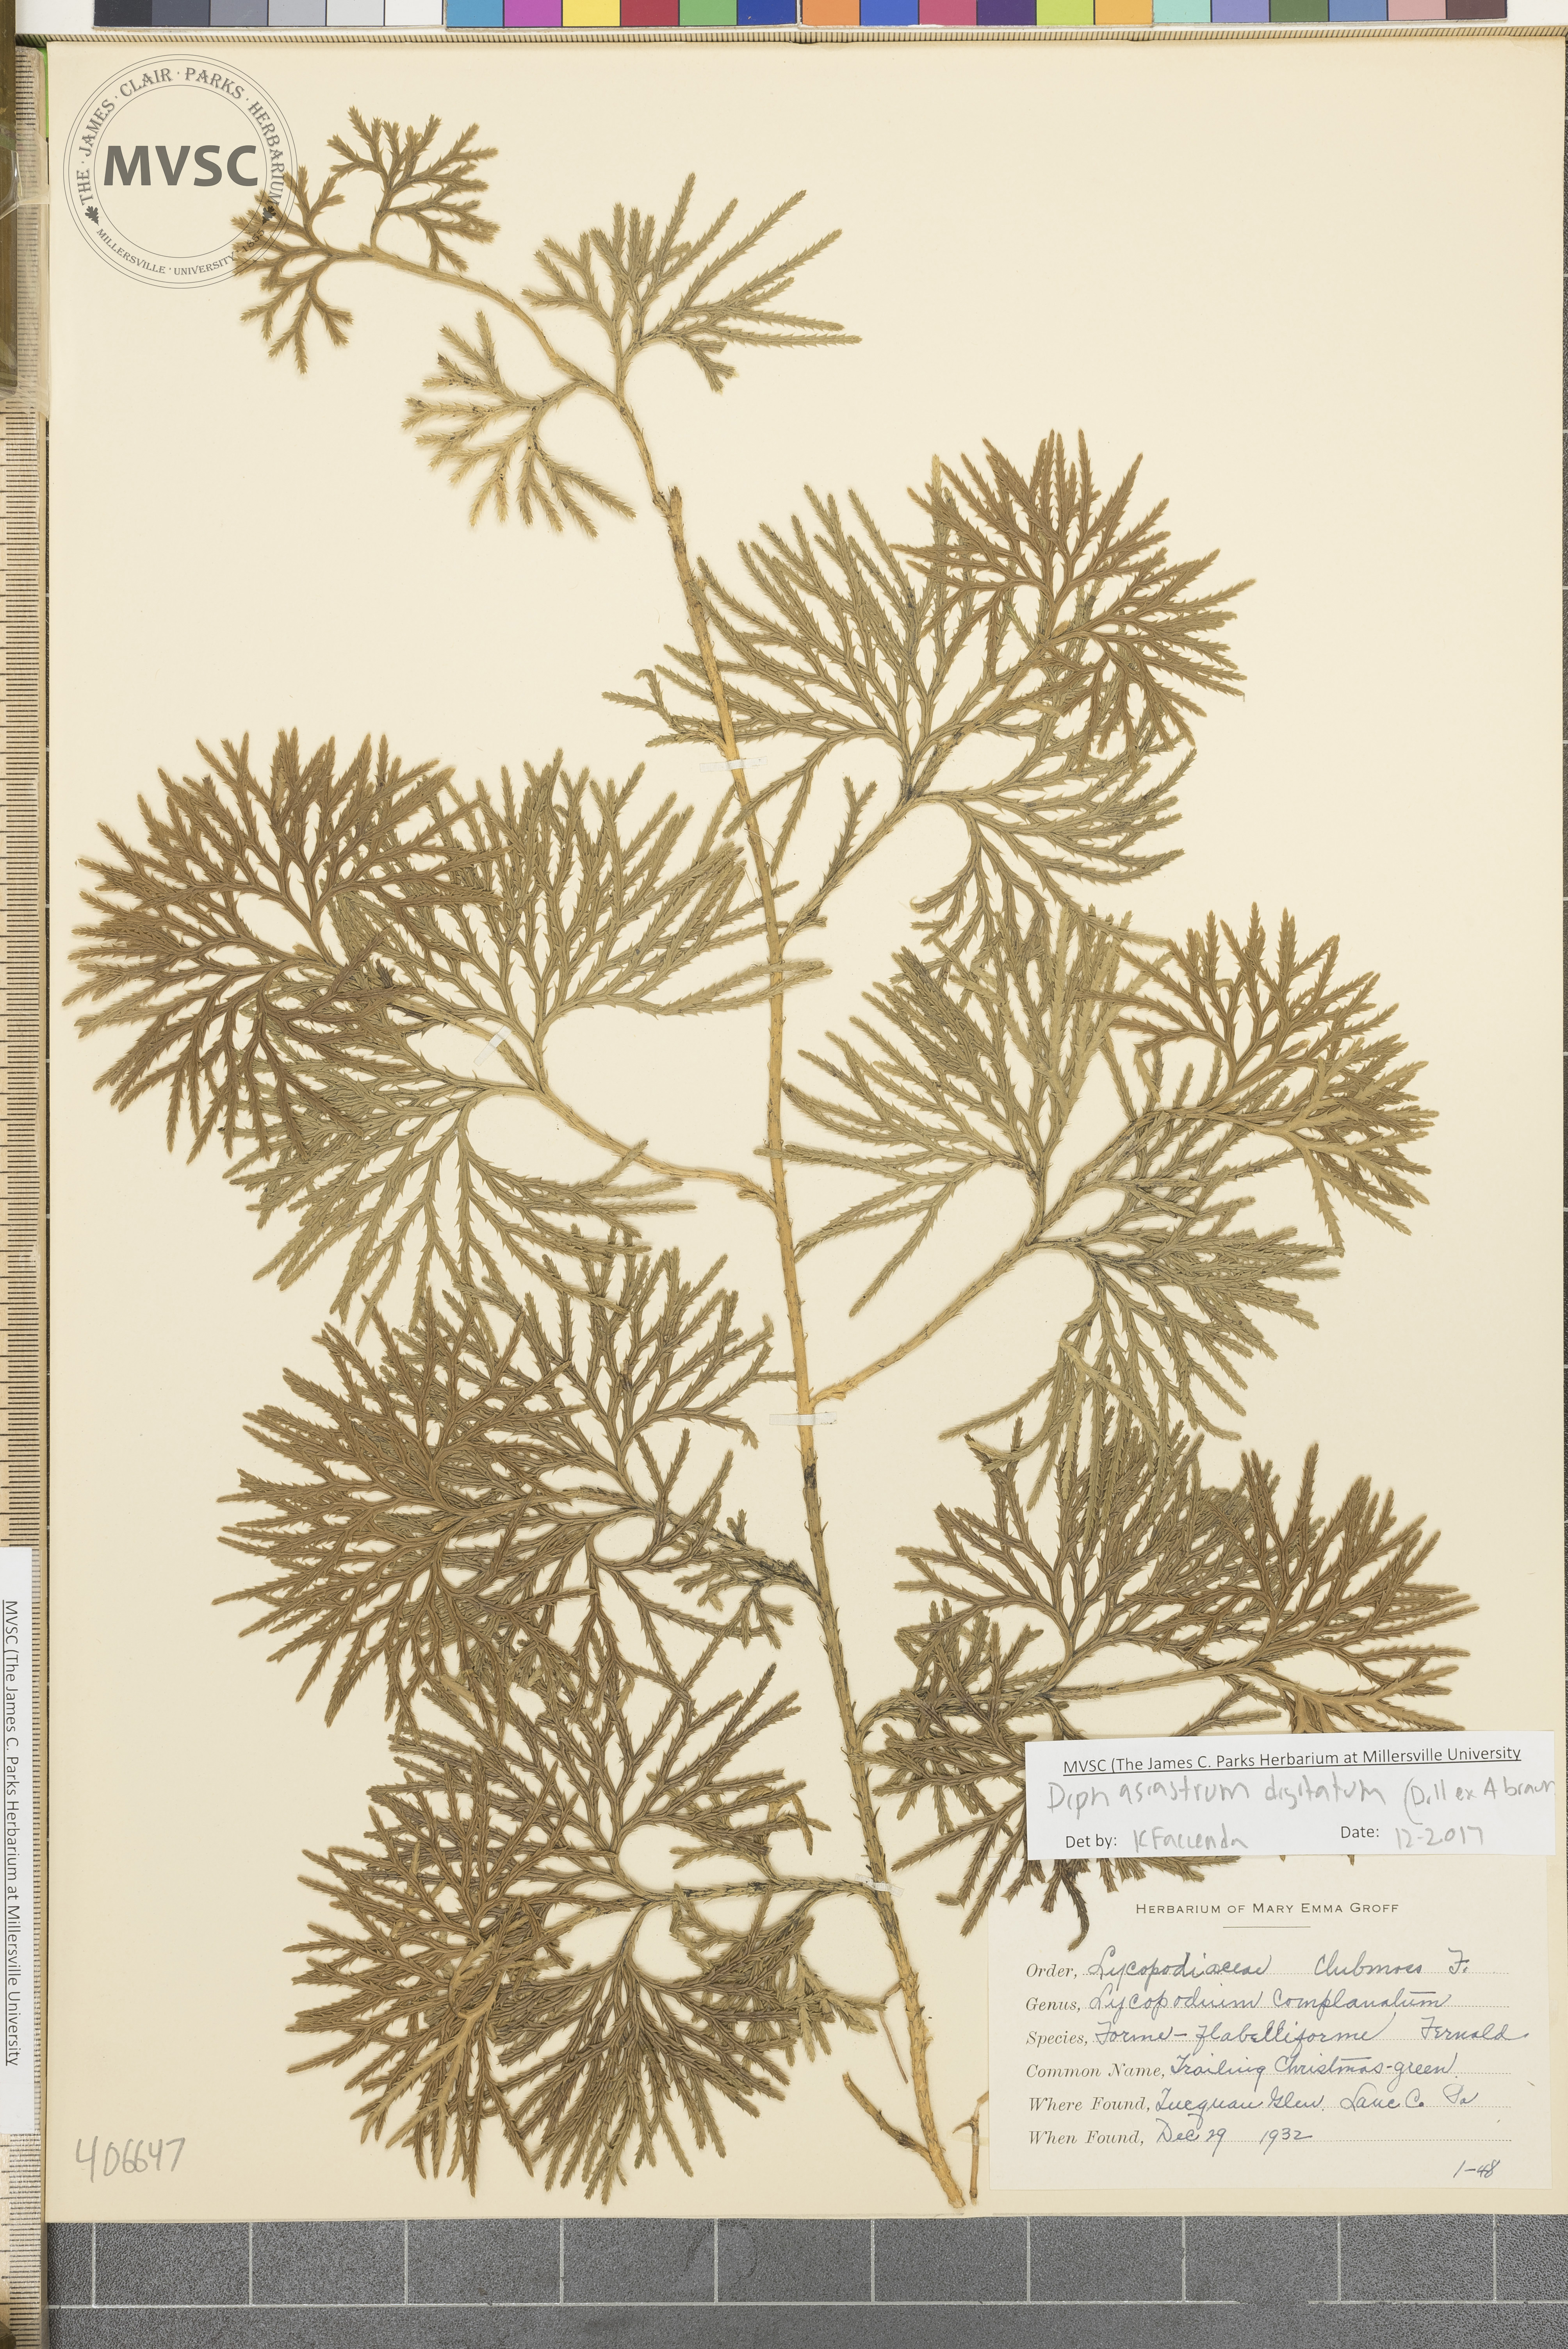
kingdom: Plantae
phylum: Tracheophyta
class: Lycopodiopsida
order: Lycopodiales
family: Lycopodiaceae
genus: Diphasiastrum
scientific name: Diphasiastrum digitatum
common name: Southern running-pine
